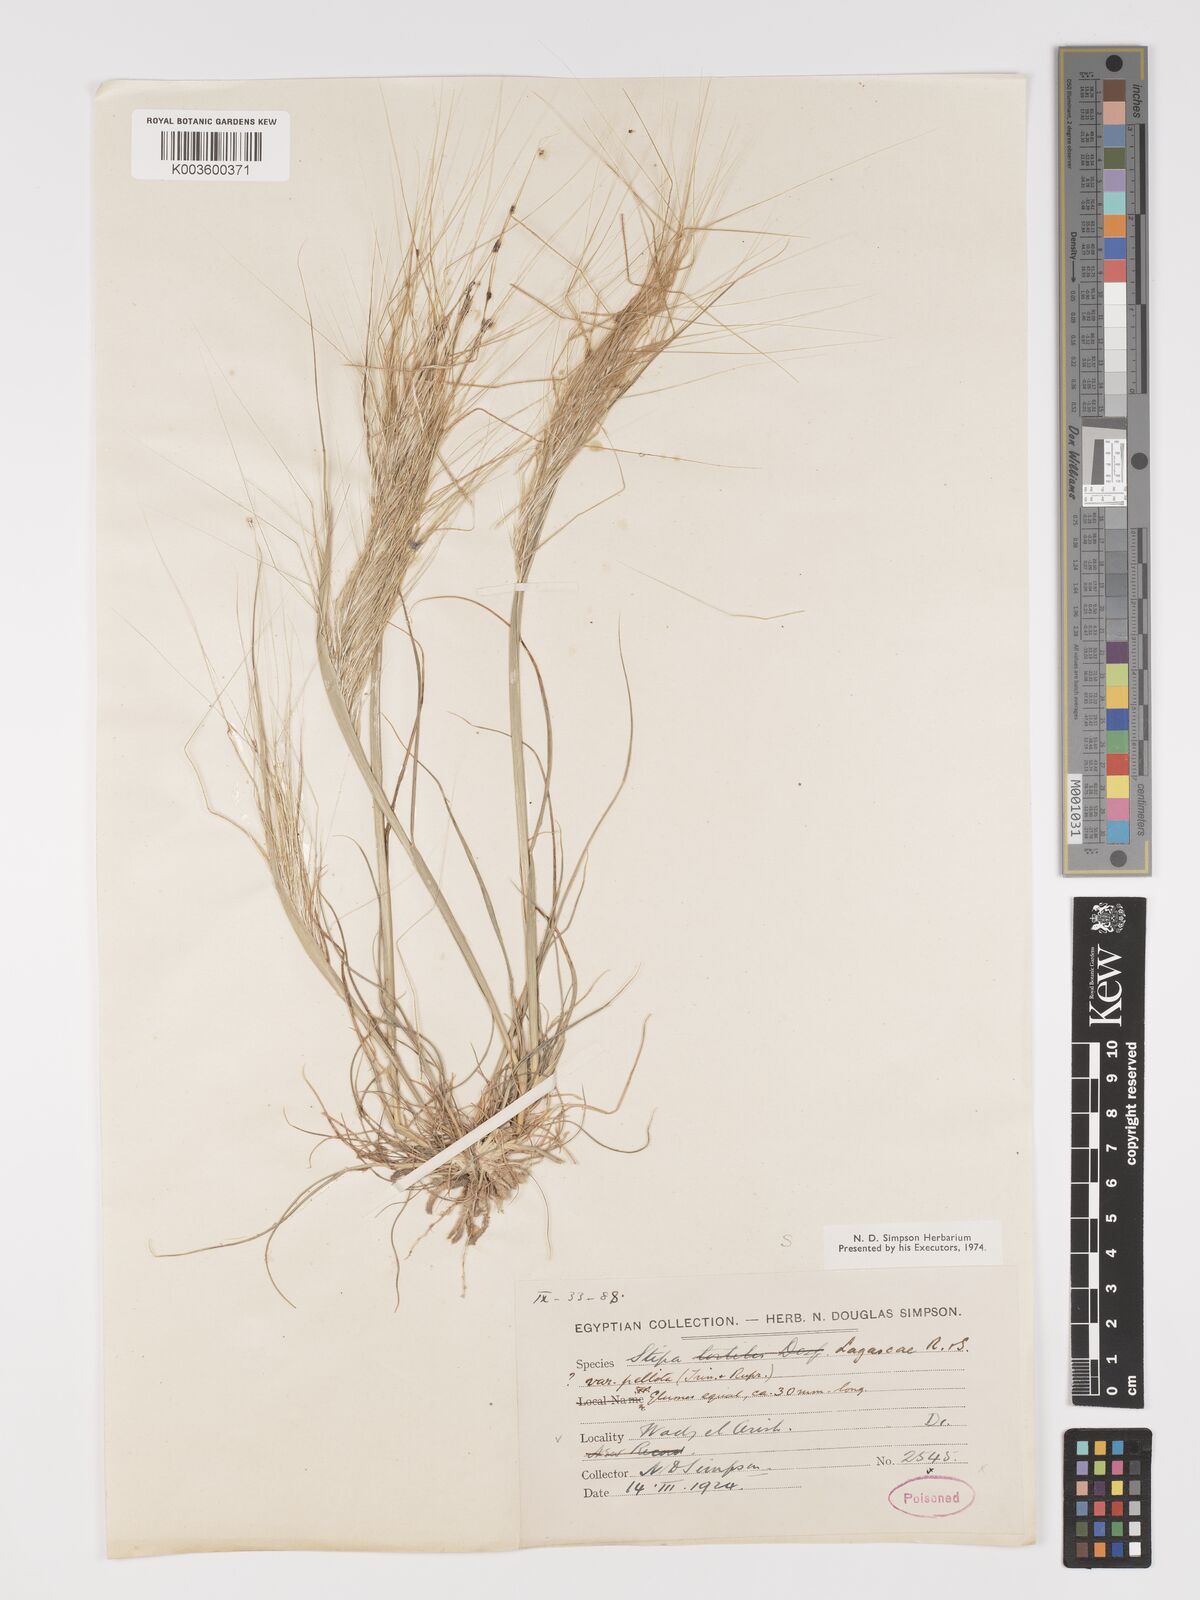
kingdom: Plantae
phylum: Tracheophyta
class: Liliopsida
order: Poales
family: Poaceae
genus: Stipellula
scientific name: Stipellula capensis
